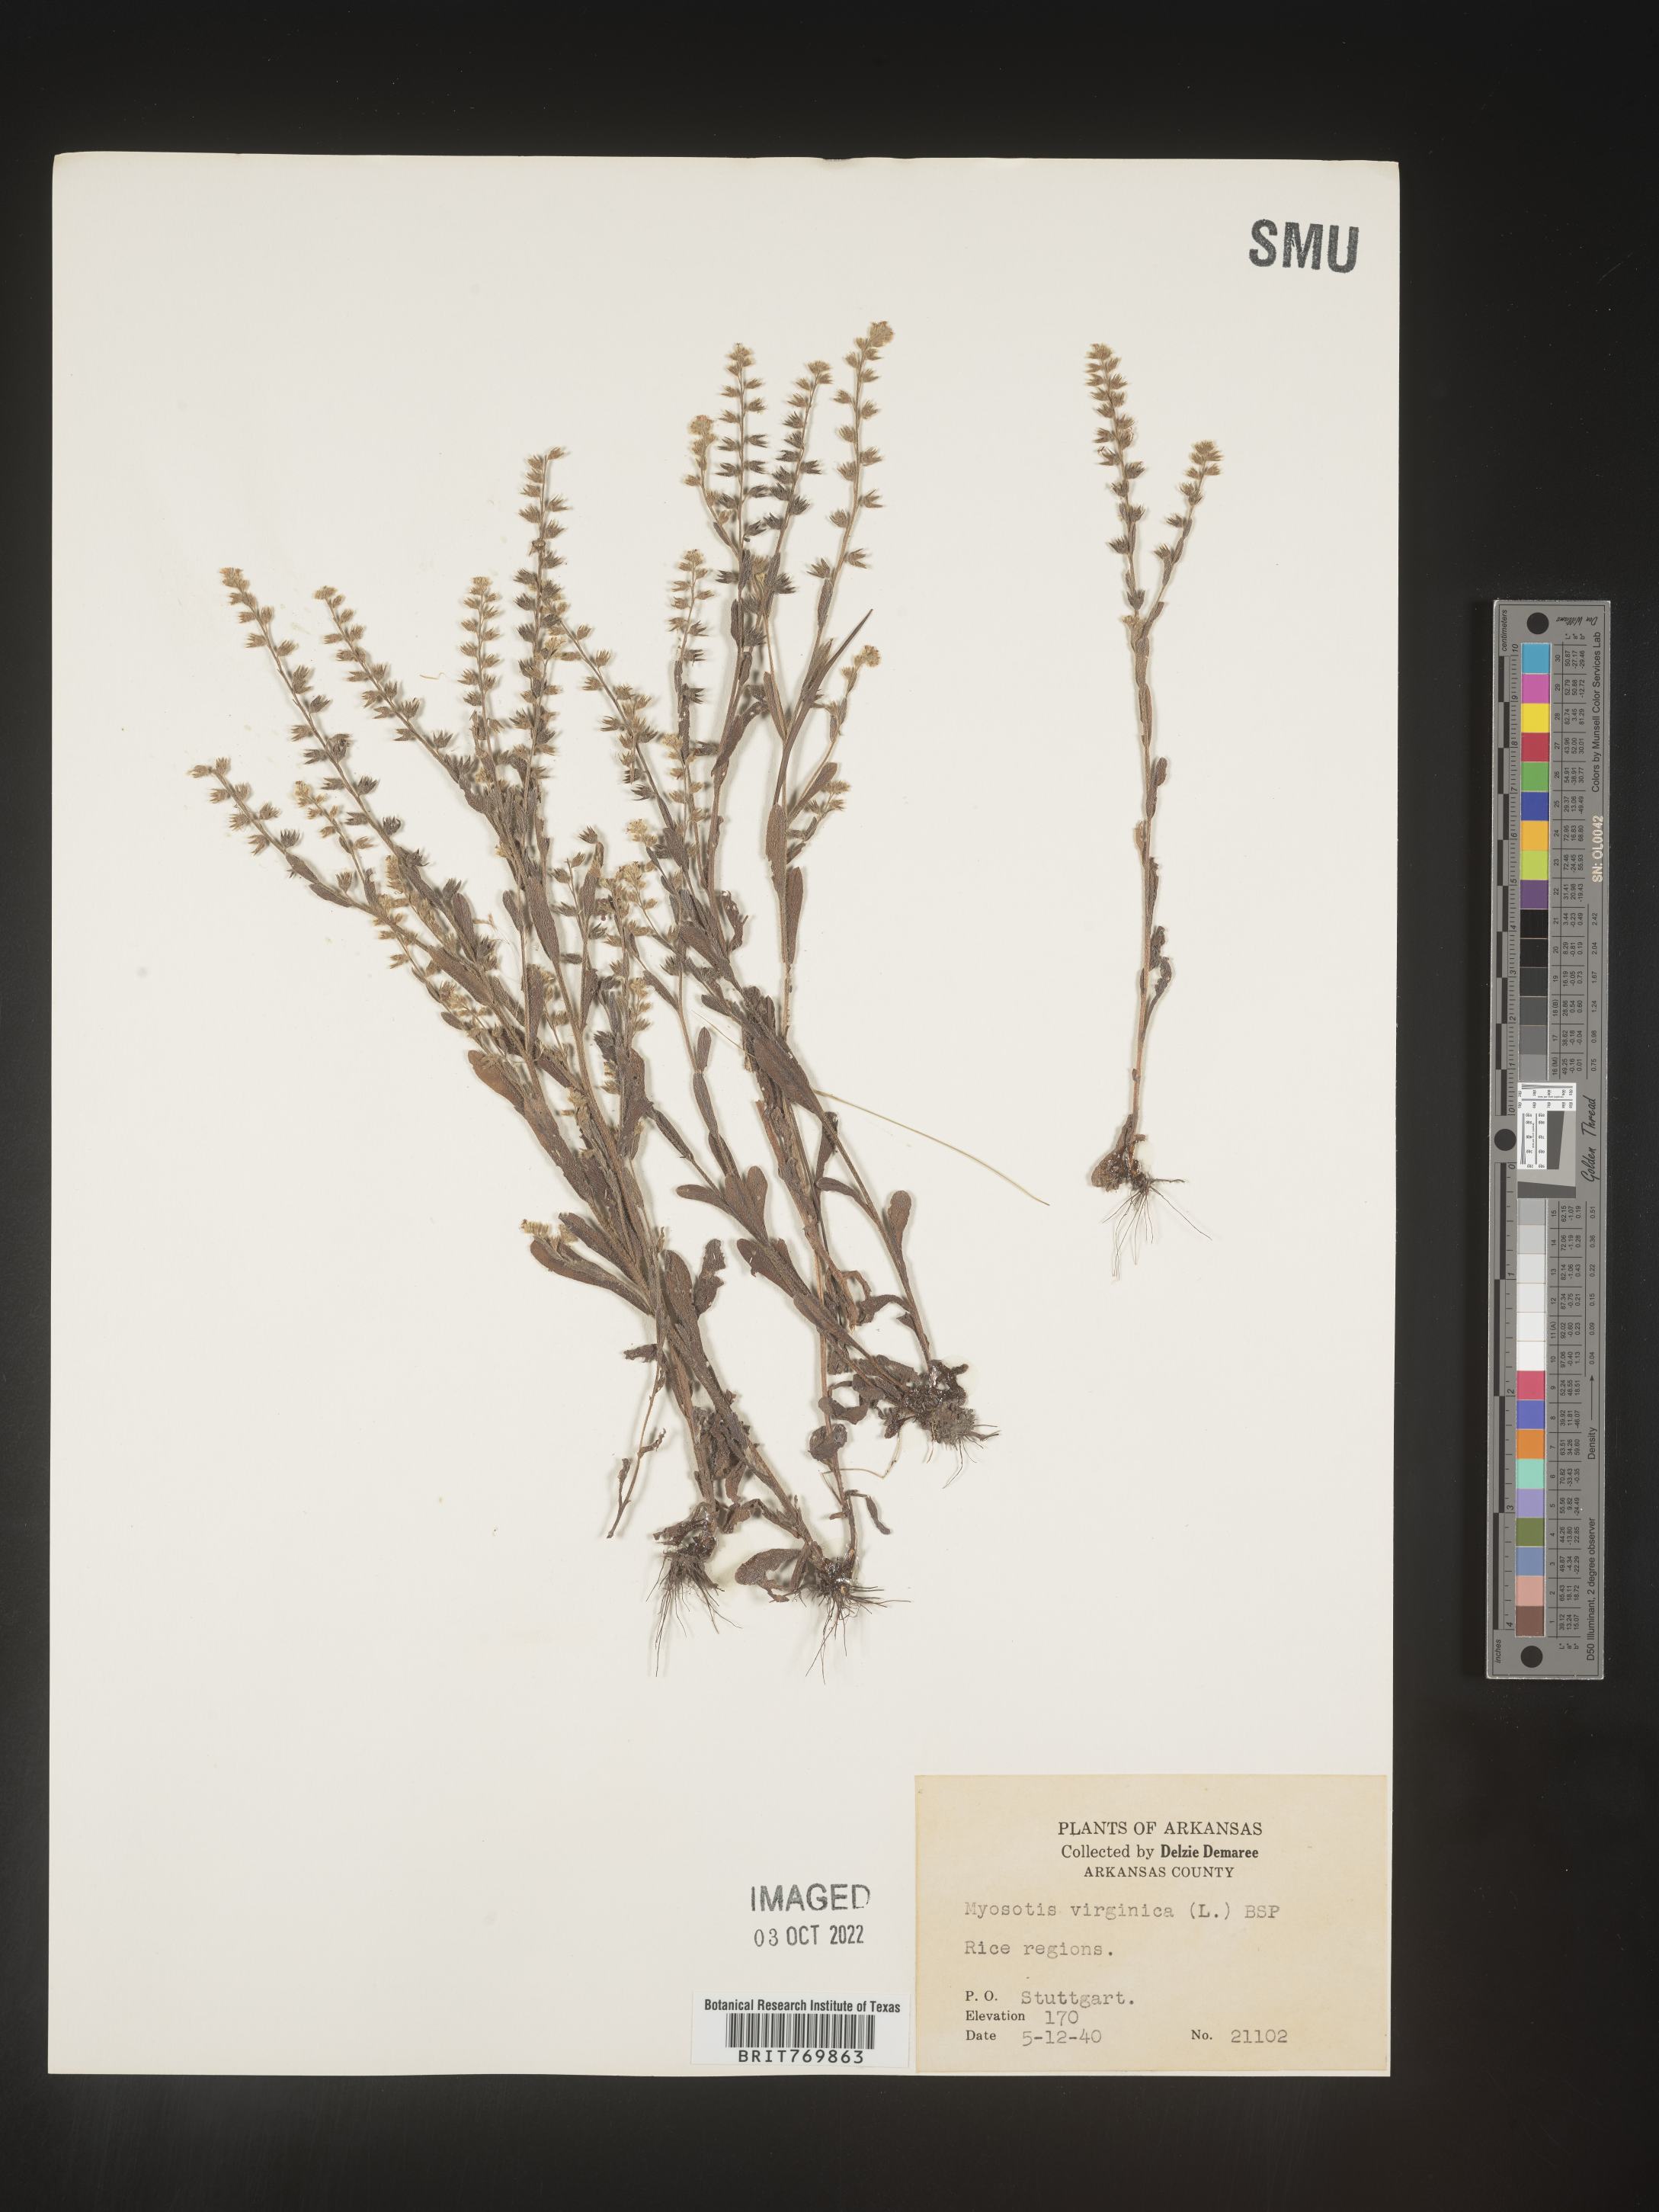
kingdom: Plantae
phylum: Tracheophyta
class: Magnoliopsida
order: Boraginales
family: Boraginaceae
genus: Myosotis
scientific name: Myosotis
